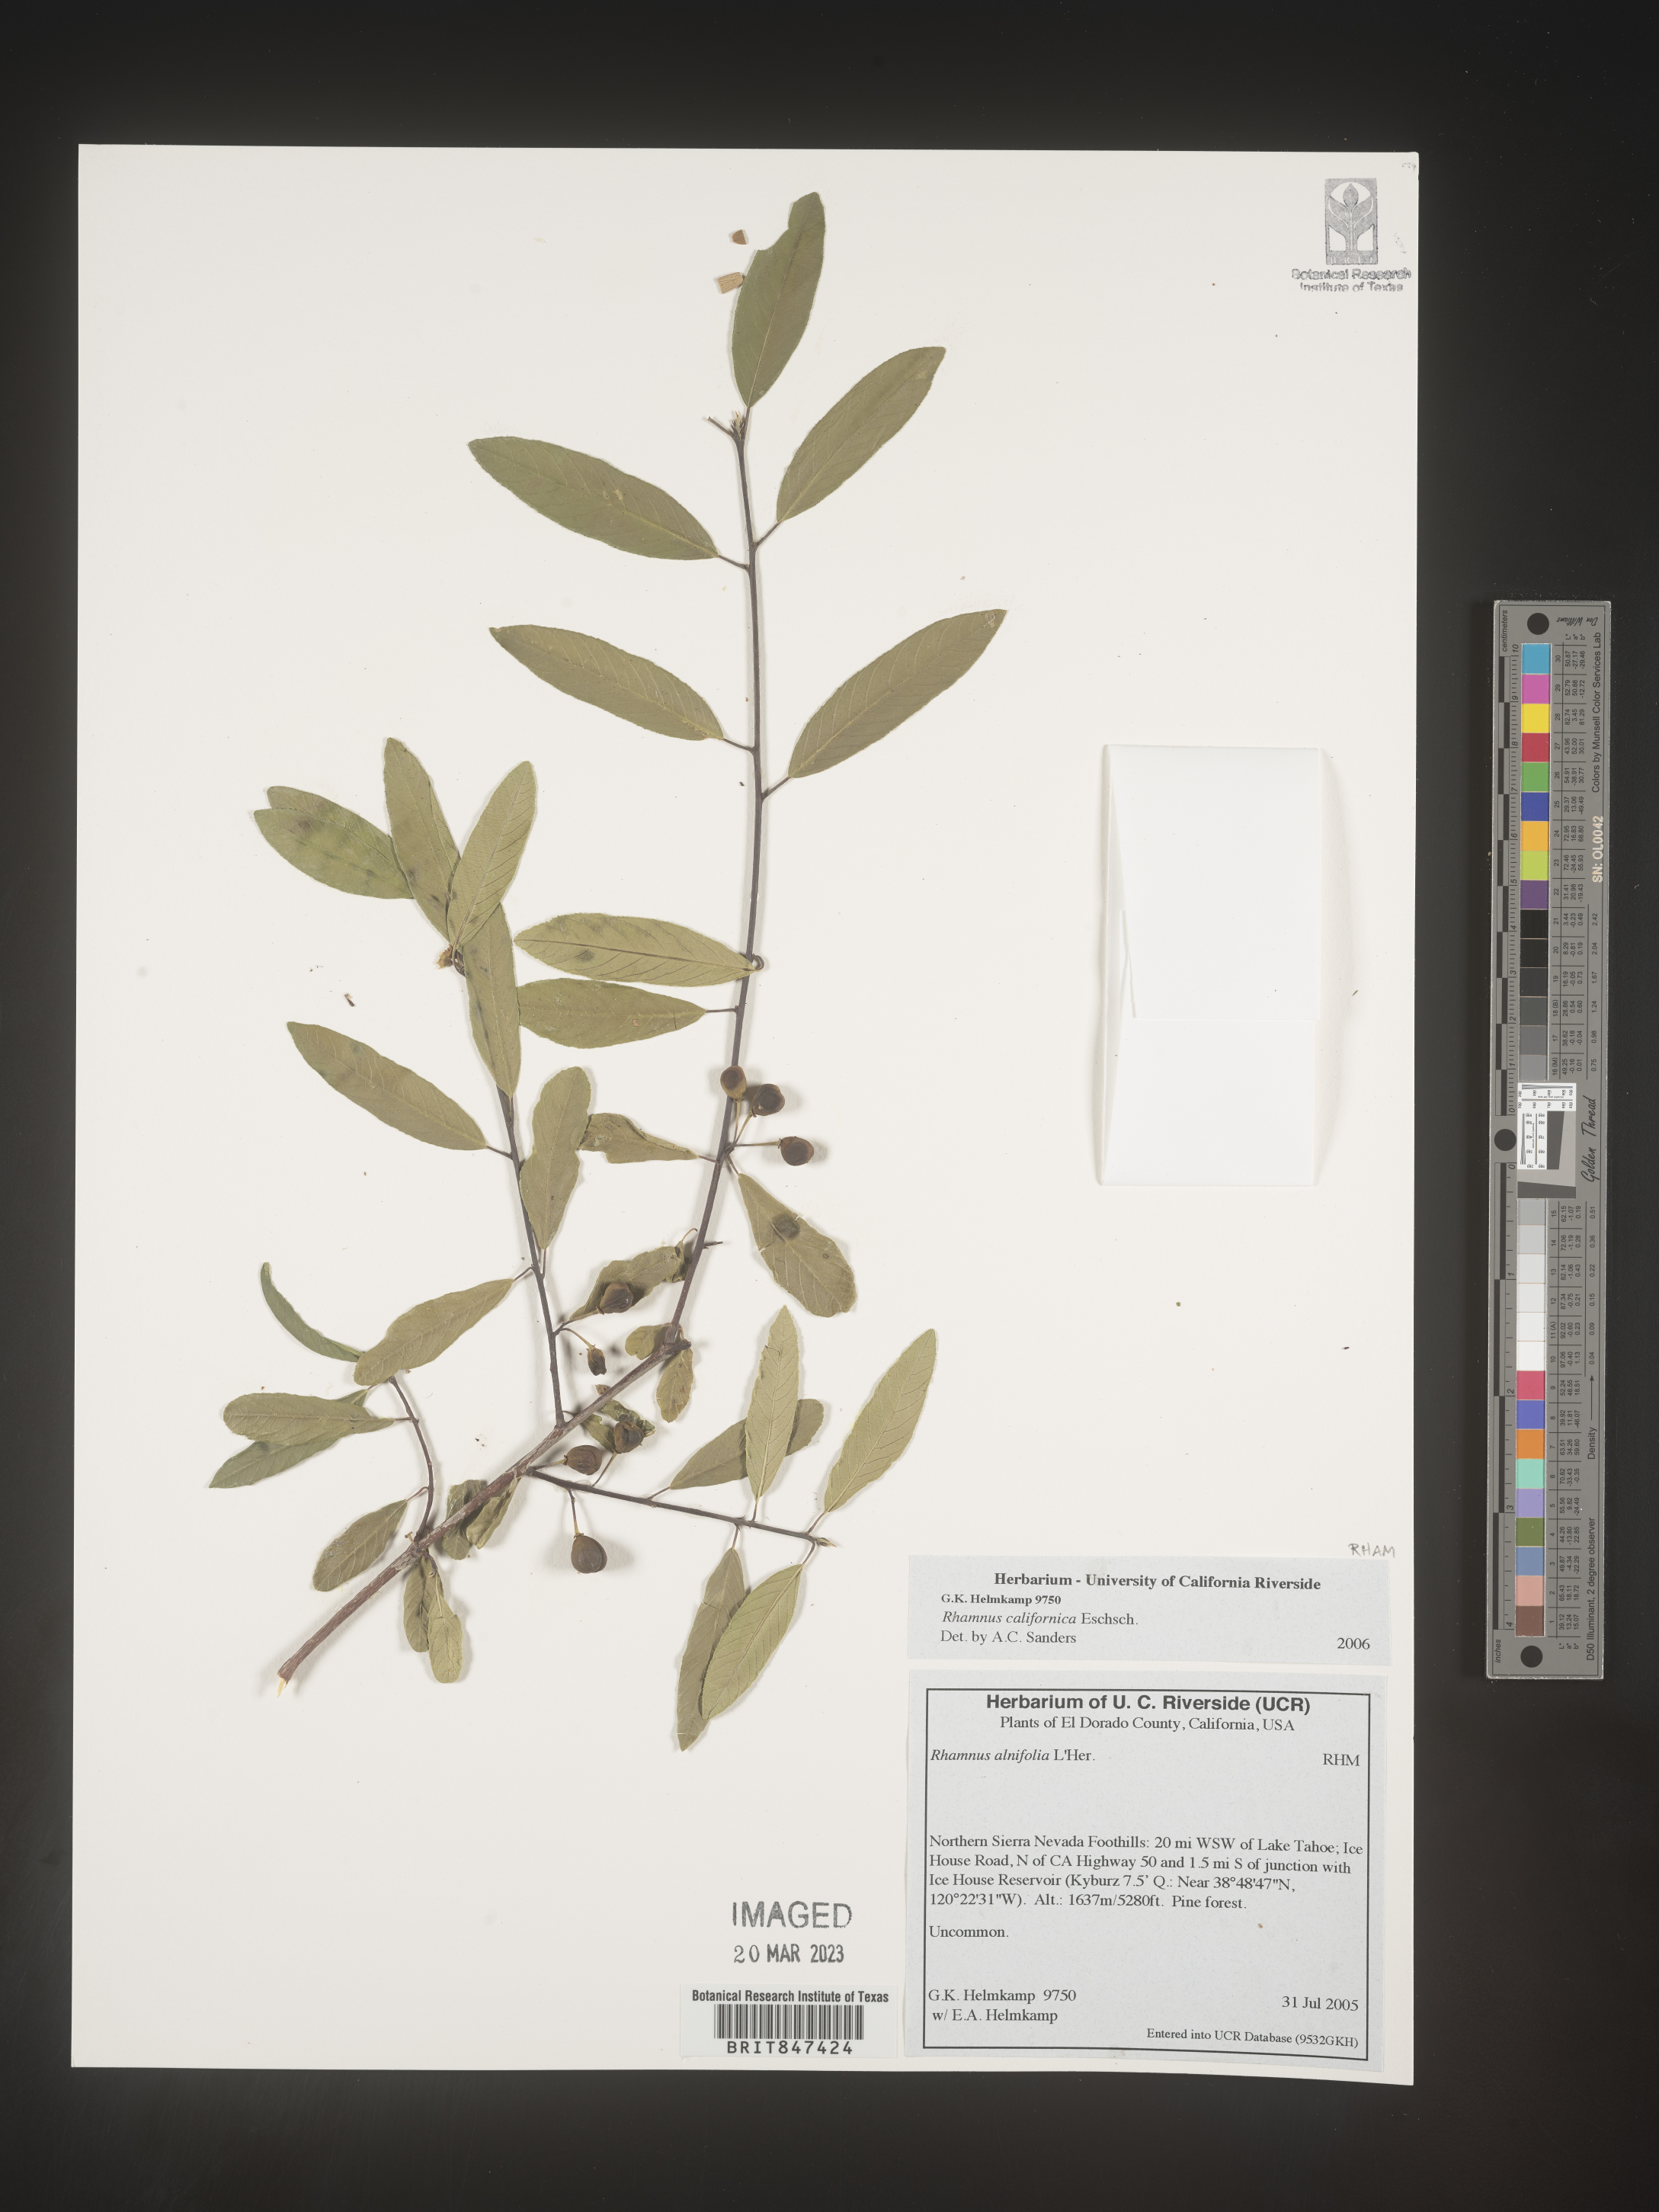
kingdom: Plantae
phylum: Tracheophyta
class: Magnoliopsida
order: Rosales
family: Rhamnaceae
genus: Frangula
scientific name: Frangula californica
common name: California buckthorn
